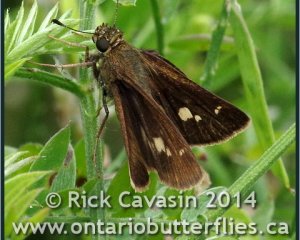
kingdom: Animalia
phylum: Arthropoda
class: Insecta
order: Lepidoptera
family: Hesperiidae
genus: Vernia
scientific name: Vernia verna
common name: Little Glassywing
